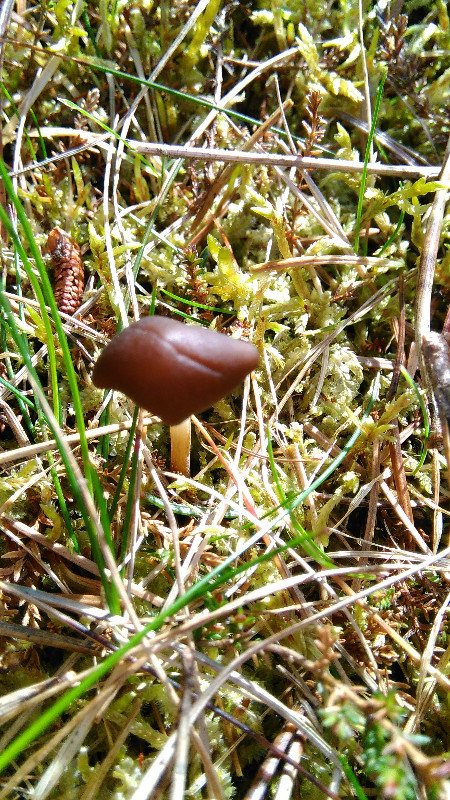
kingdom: Fungi
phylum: Basidiomycota
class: Agaricomycetes
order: Agaricales
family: Physalacriaceae
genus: Strobilurus
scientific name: Strobilurus stephanocystis
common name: fyrre-koglehat
